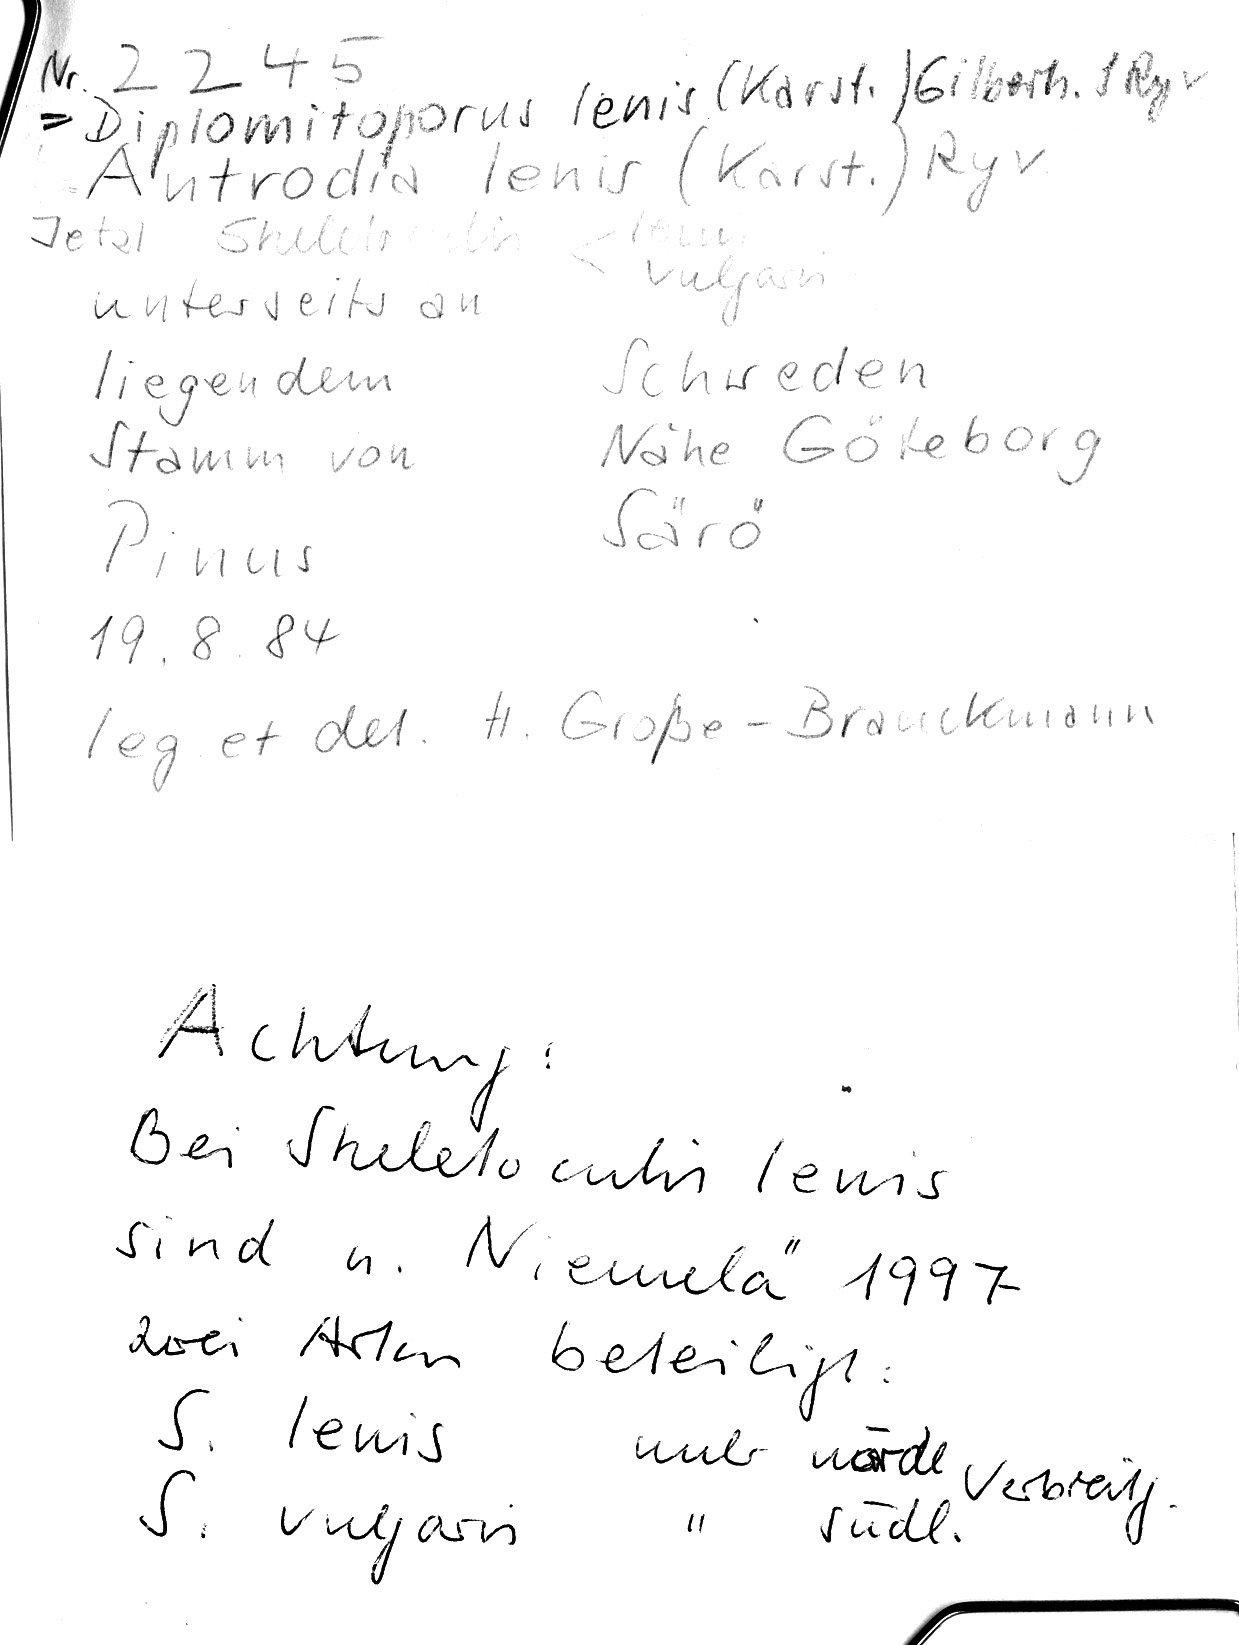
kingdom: Fungi
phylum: Basidiomycota
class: Agaricomycetes
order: Hymenochaetales
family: Rickenellaceae
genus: Sidera
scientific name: Sidera lenis
